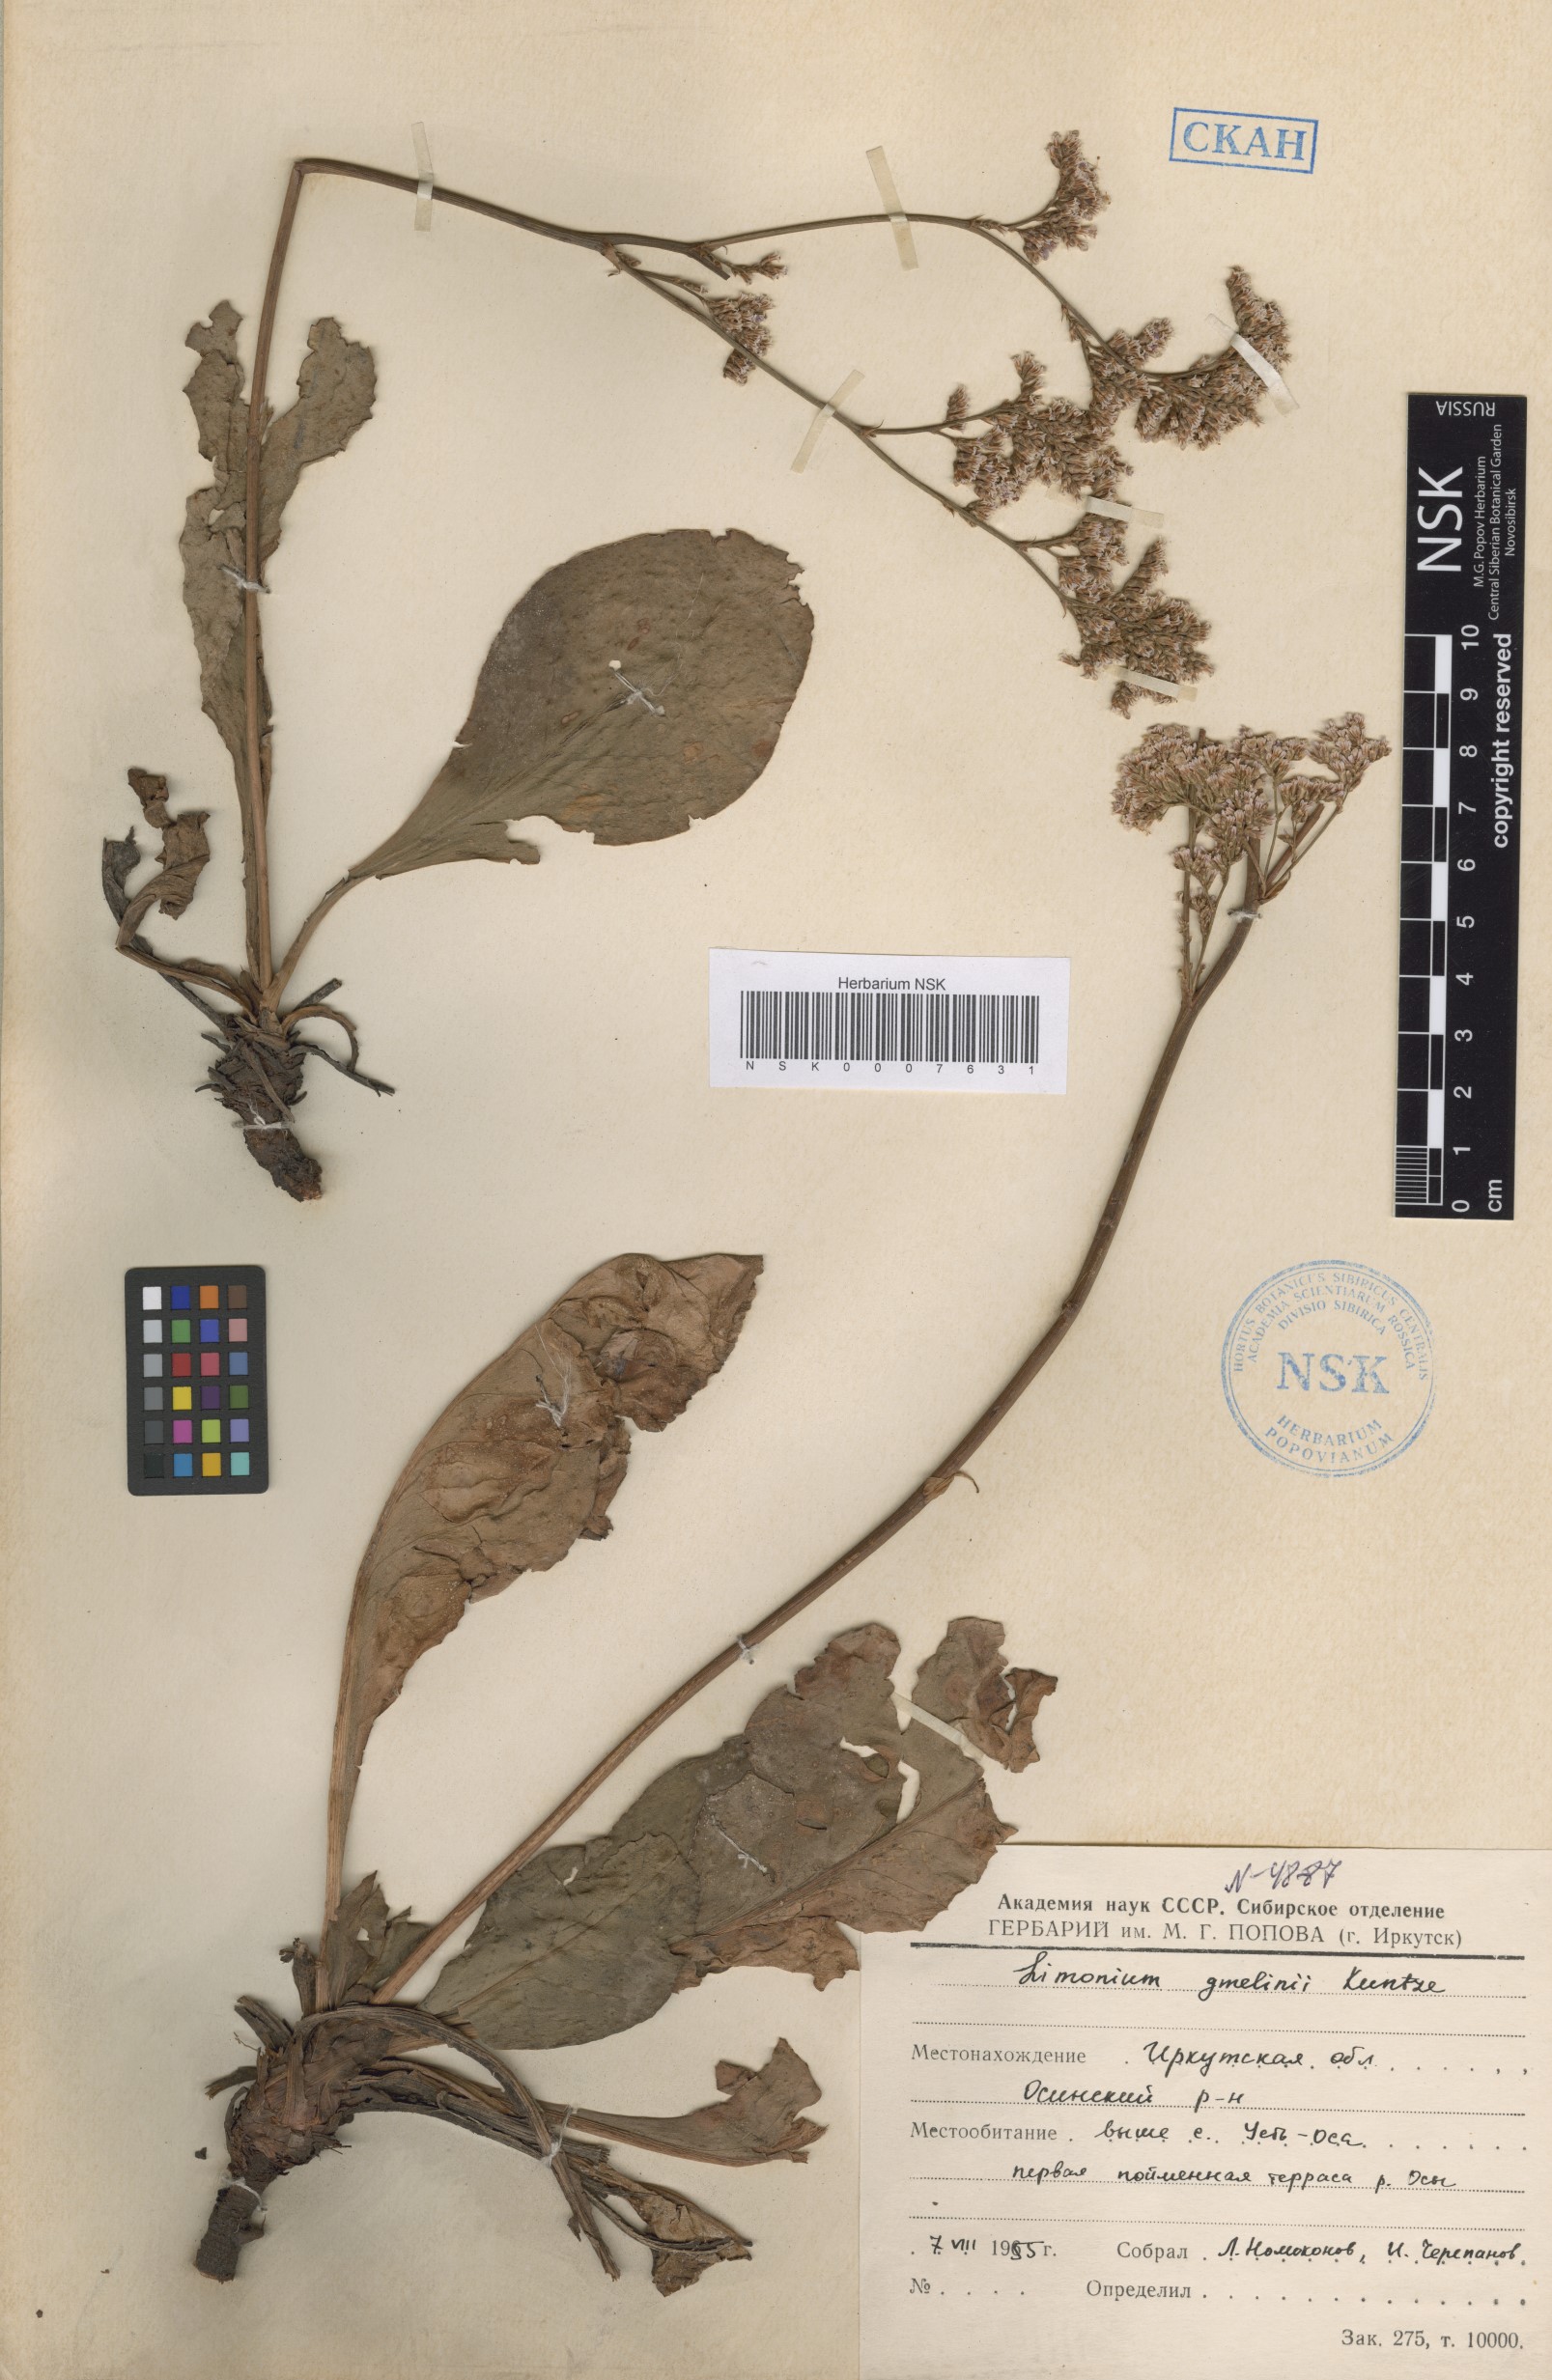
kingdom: Plantae
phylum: Tracheophyta
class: Magnoliopsida
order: Caryophyllales
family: Plumbaginaceae
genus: Limonium
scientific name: Limonium gmelini
